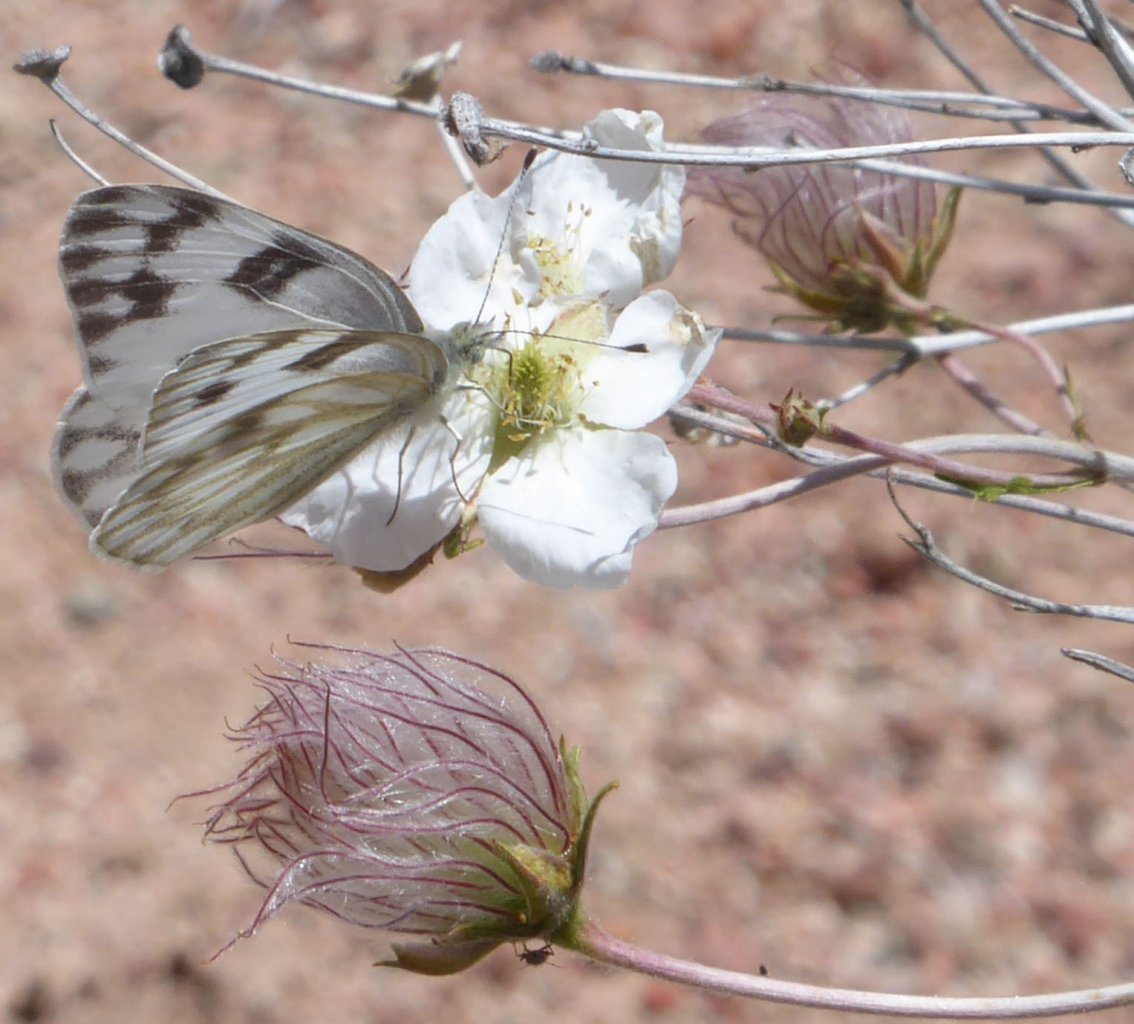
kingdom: Animalia
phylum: Arthropoda
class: Insecta
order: Lepidoptera
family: Pieridae
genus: Pontia
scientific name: Pontia protodice
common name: Checkered White
